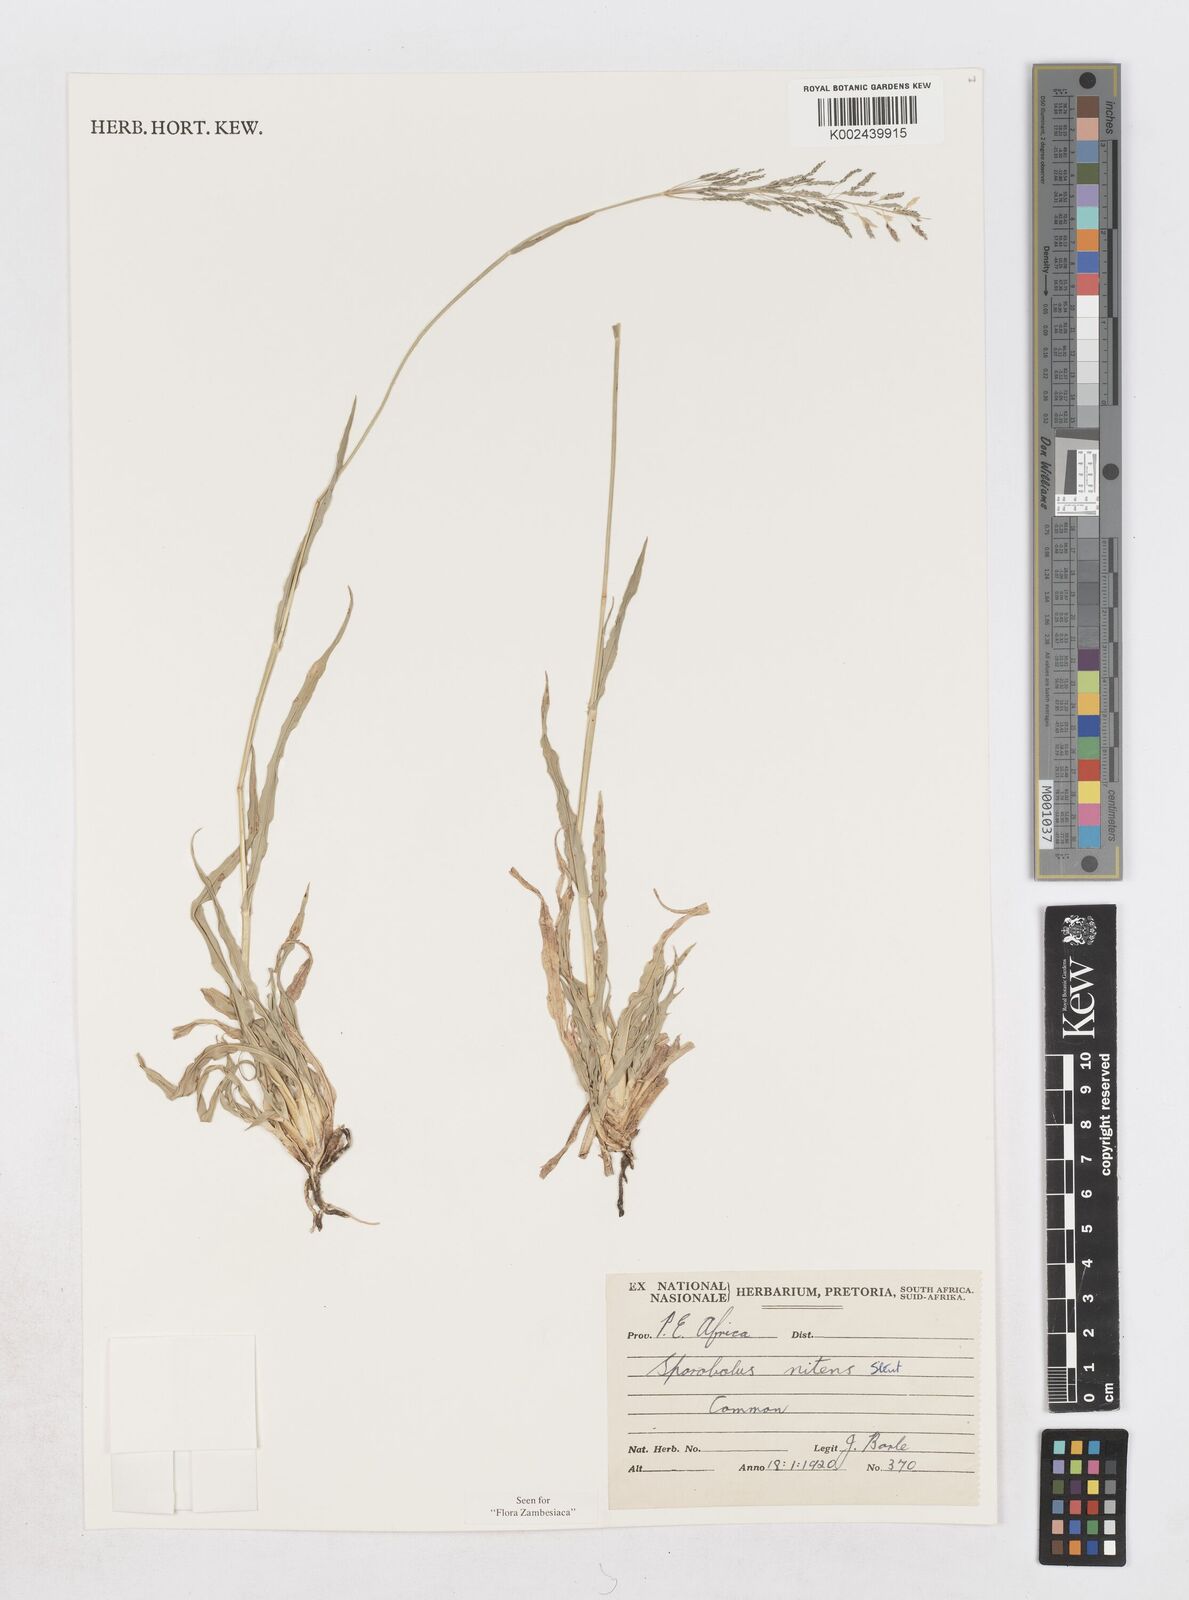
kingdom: Plantae
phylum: Tracheophyta
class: Liliopsida
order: Poales
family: Poaceae
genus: Sporobolus
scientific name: Sporobolus nitens
